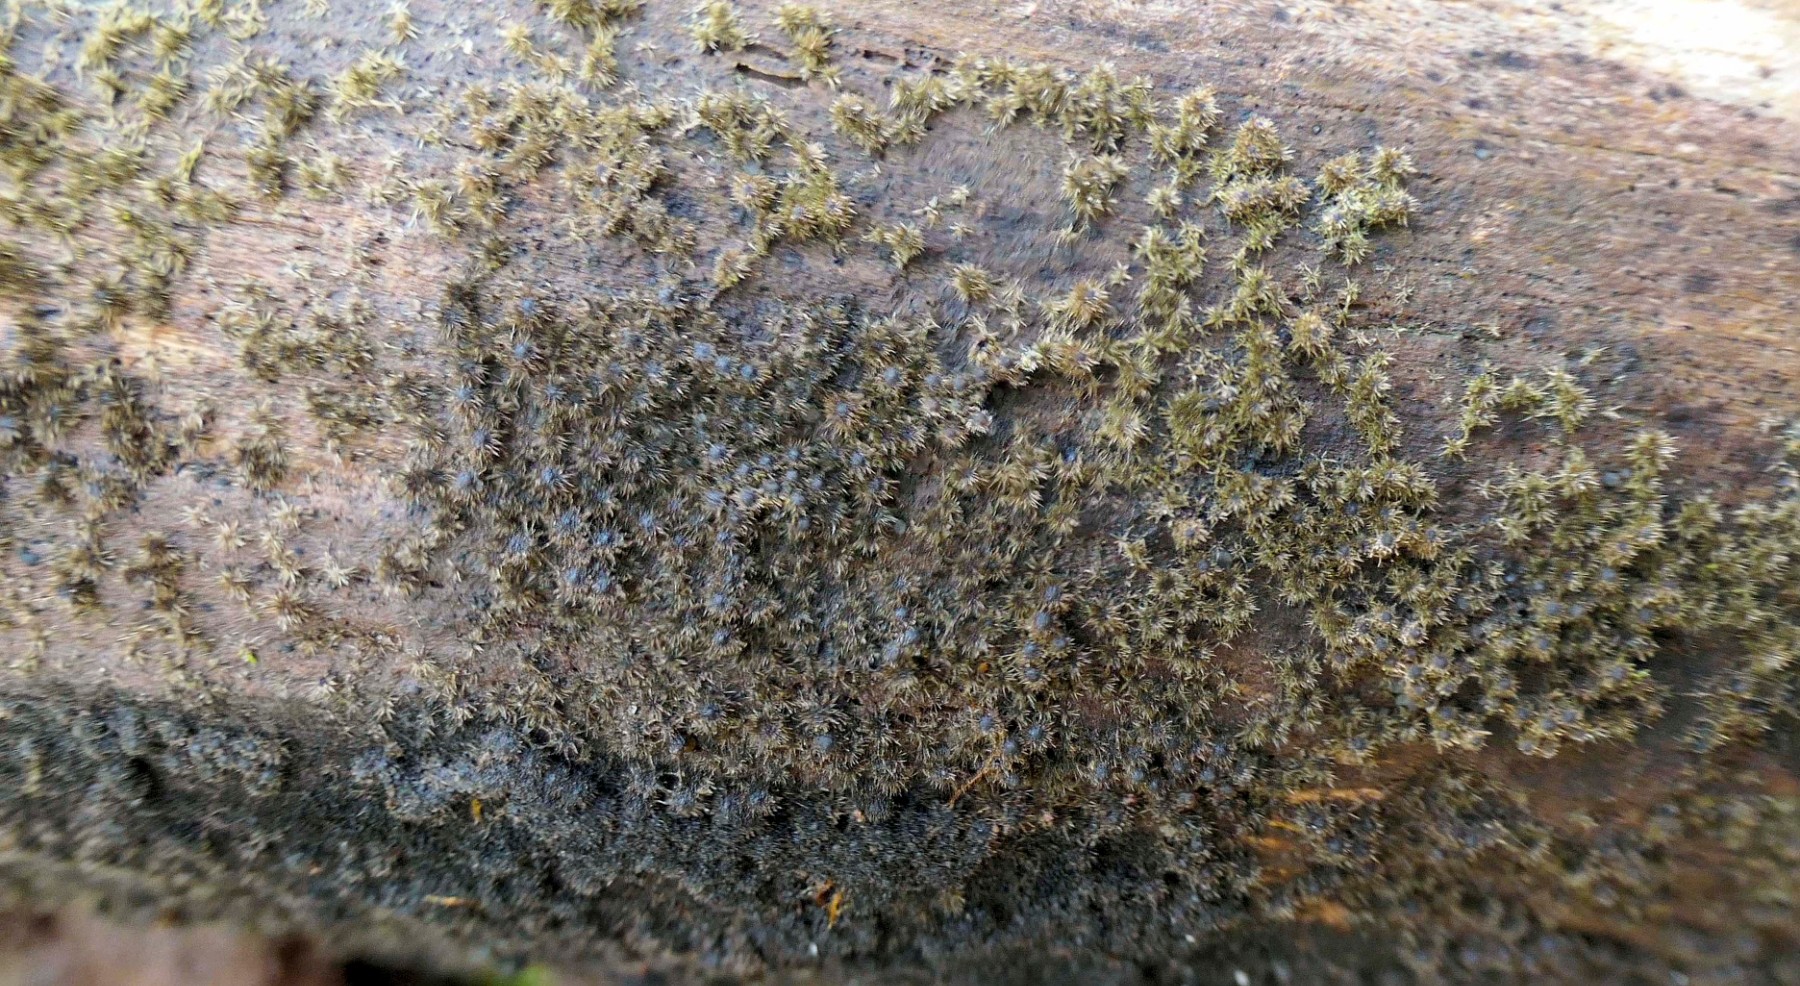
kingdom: Fungi
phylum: Ascomycota
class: Sordariomycetes
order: Sordariales
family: Helminthosphaeriaceae
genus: Echinosphaeria
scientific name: Echinosphaeria
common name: børstekerne
